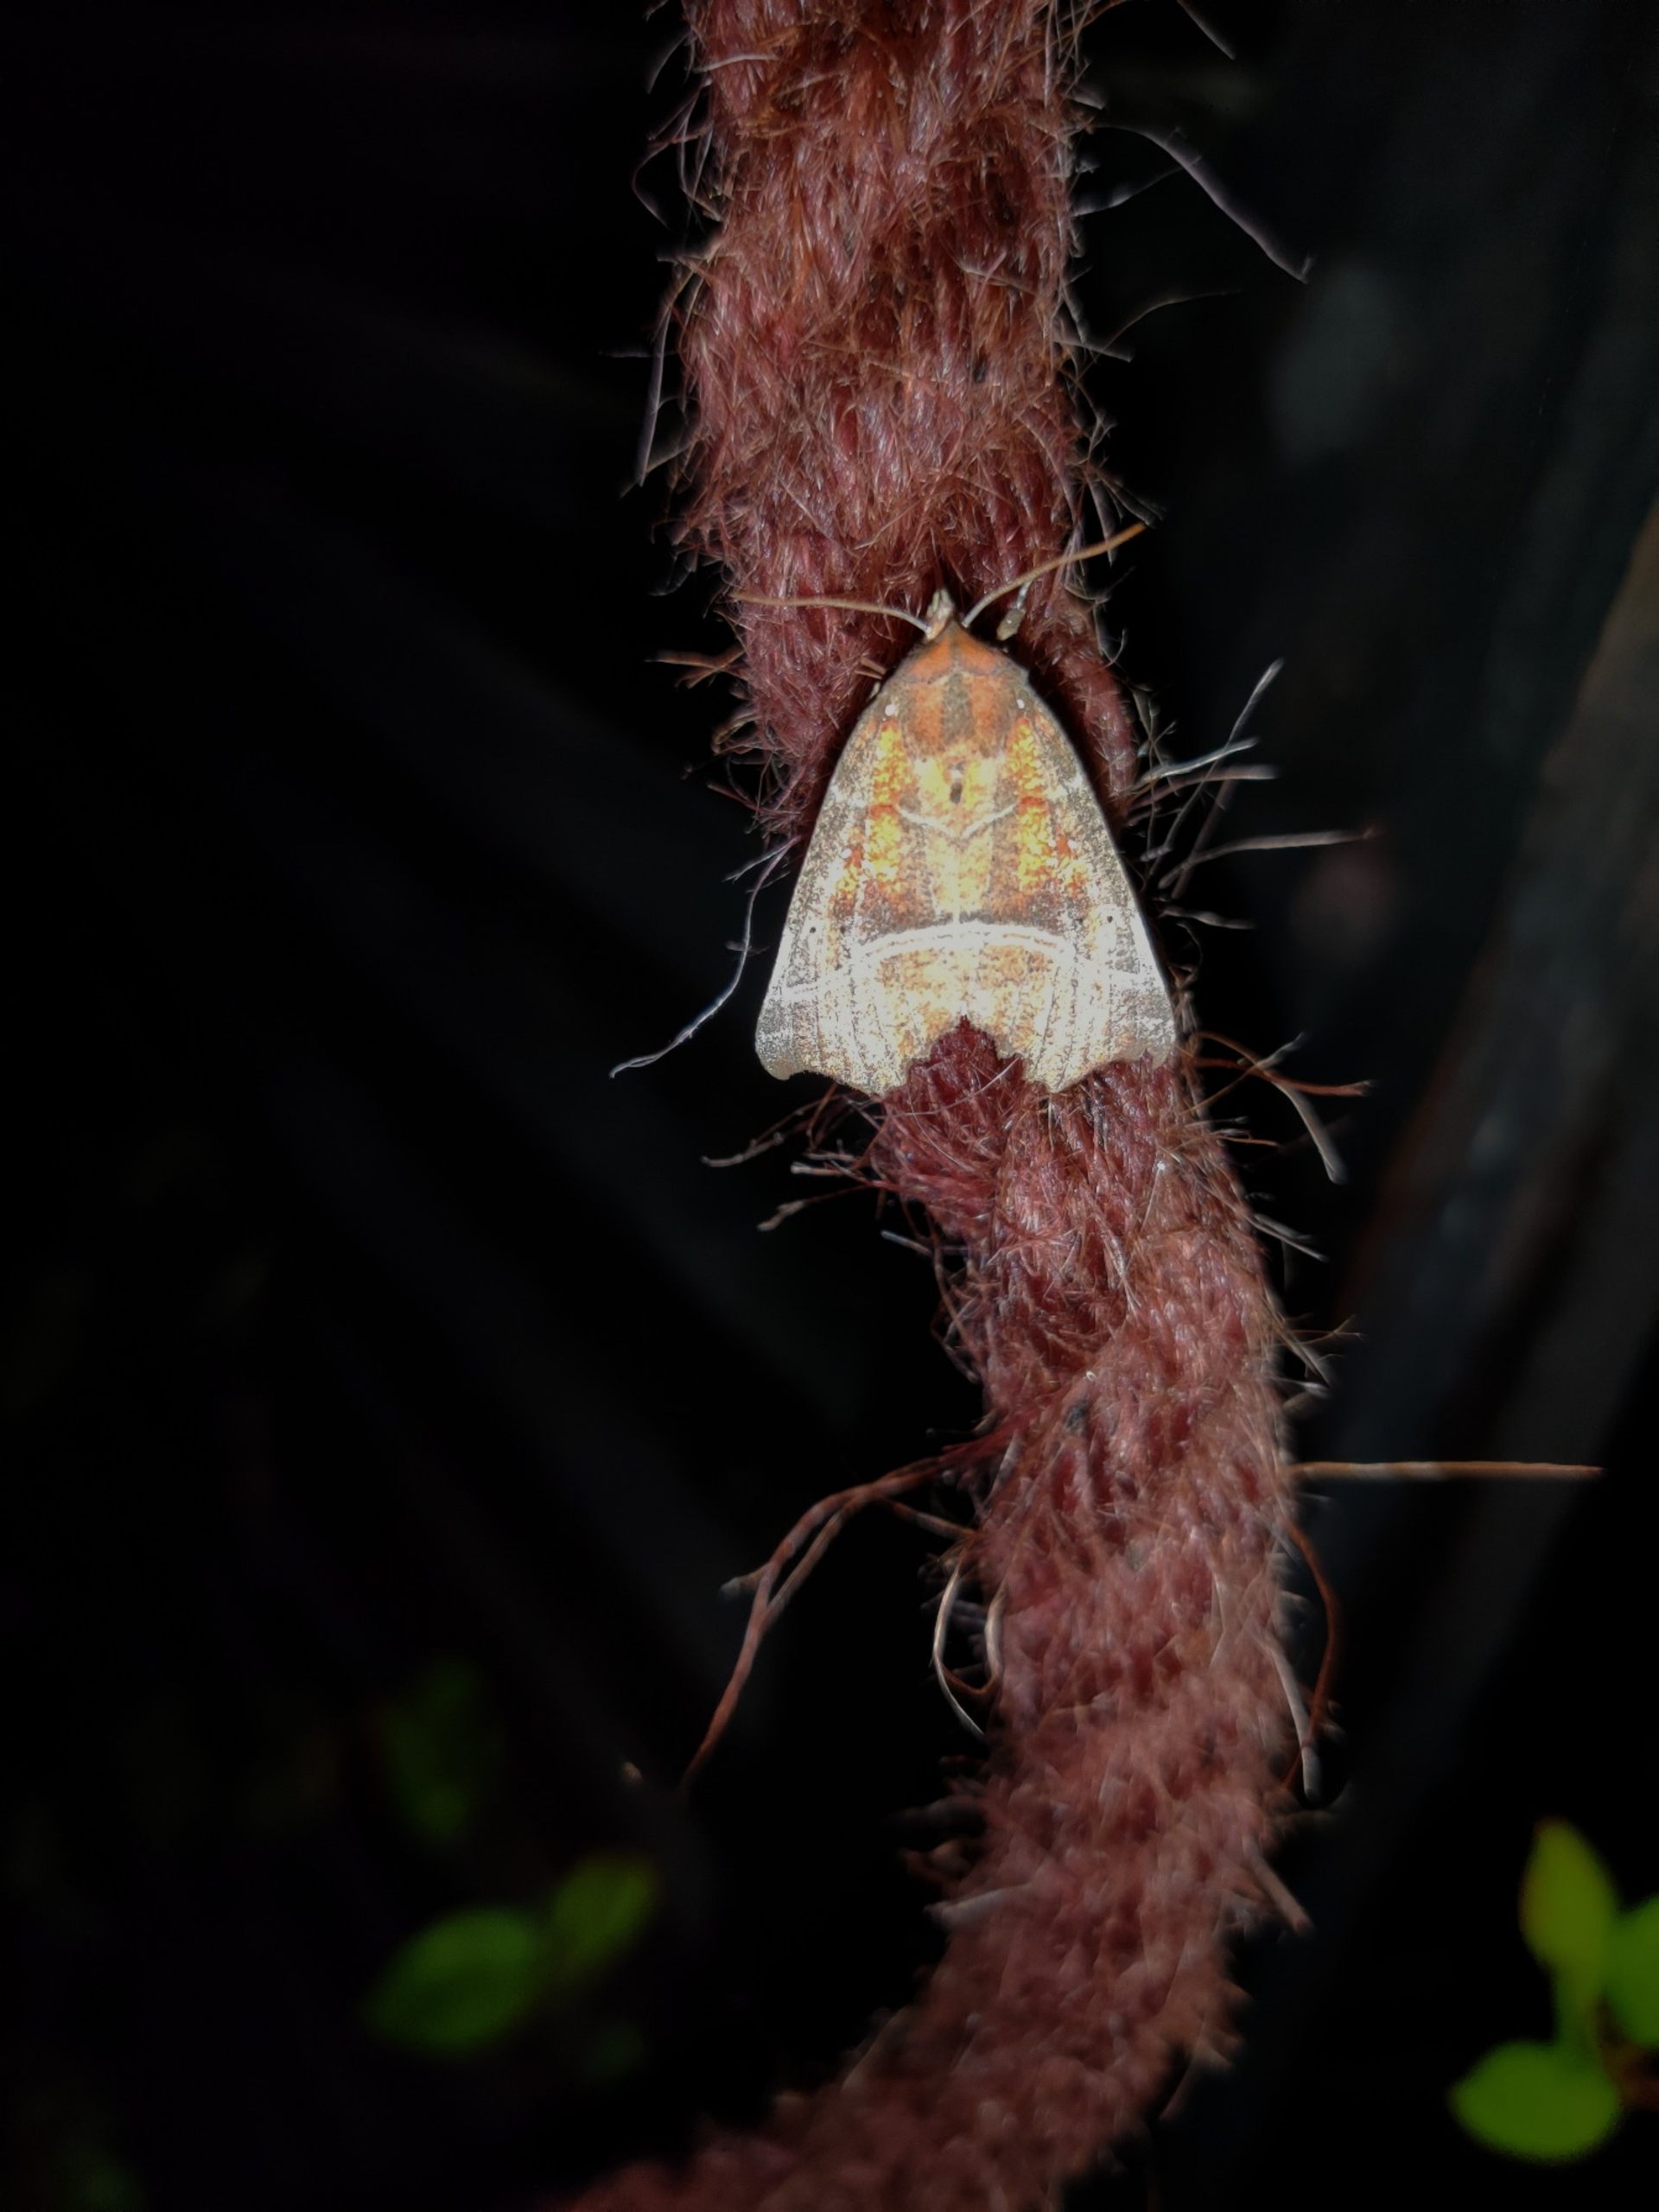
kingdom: Animalia
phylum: Arthropoda
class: Insecta
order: Lepidoptera
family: Erebidae
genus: Scoliopteryx
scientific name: Scoliopteryx libatrix
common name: Husmoderugle
